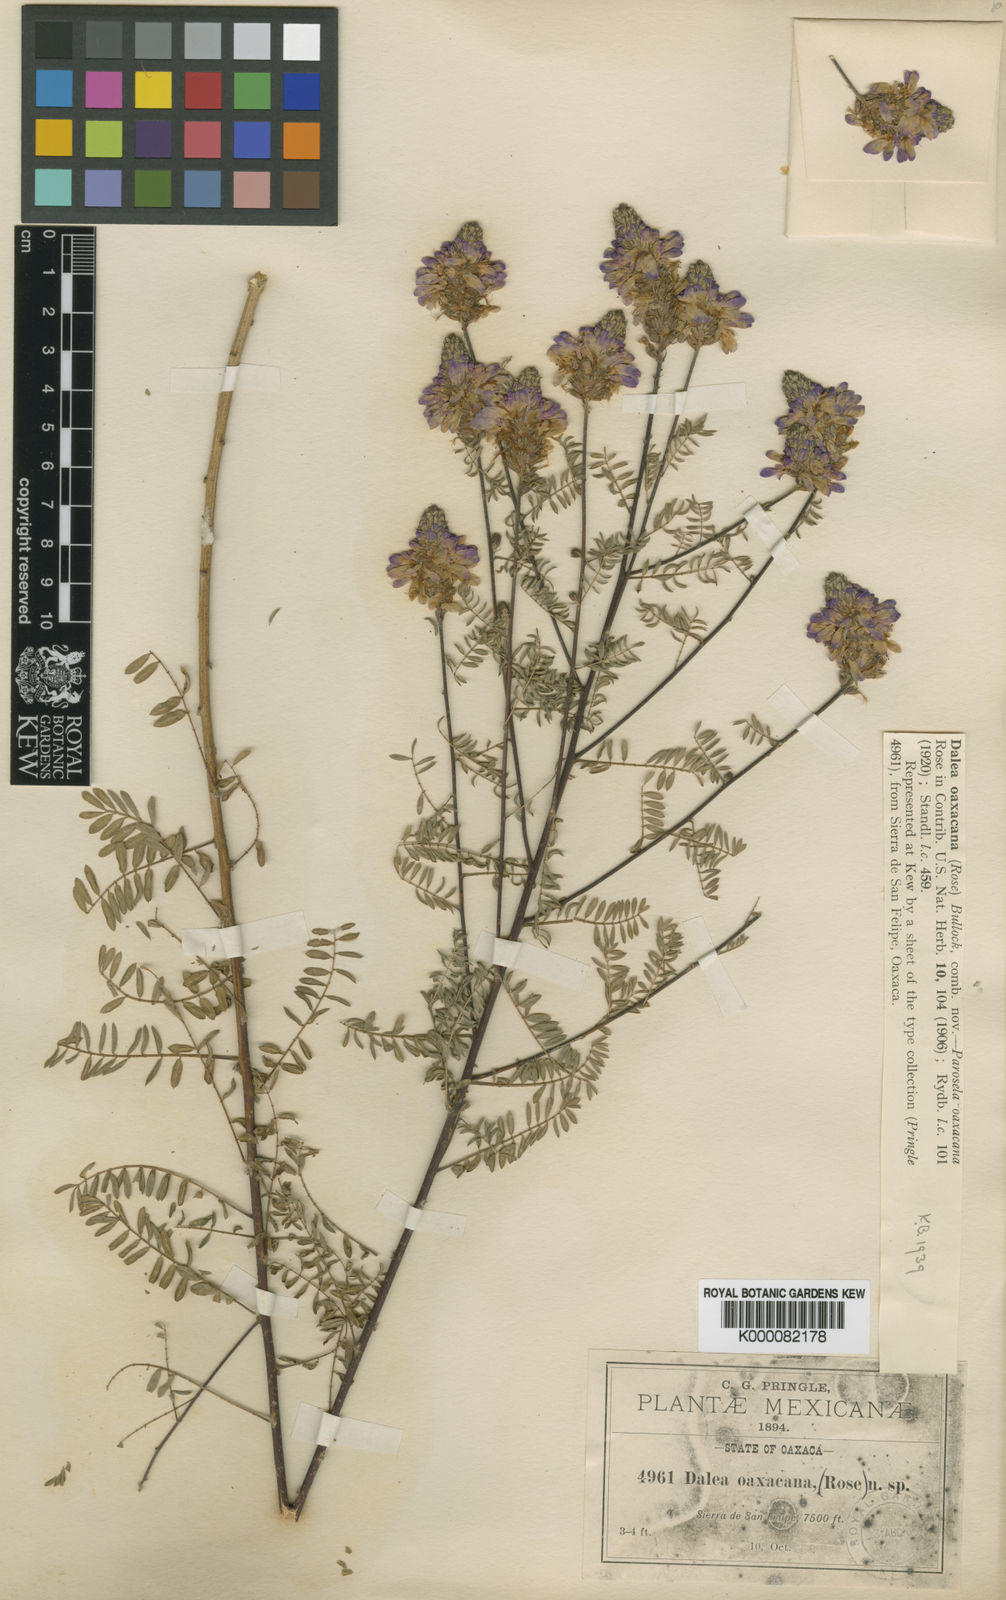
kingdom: Plantae
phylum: Tracheophyta
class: Magnoliopsida
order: Fabales
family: Fabaceae
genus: Dalea
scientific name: Dalea virgata
